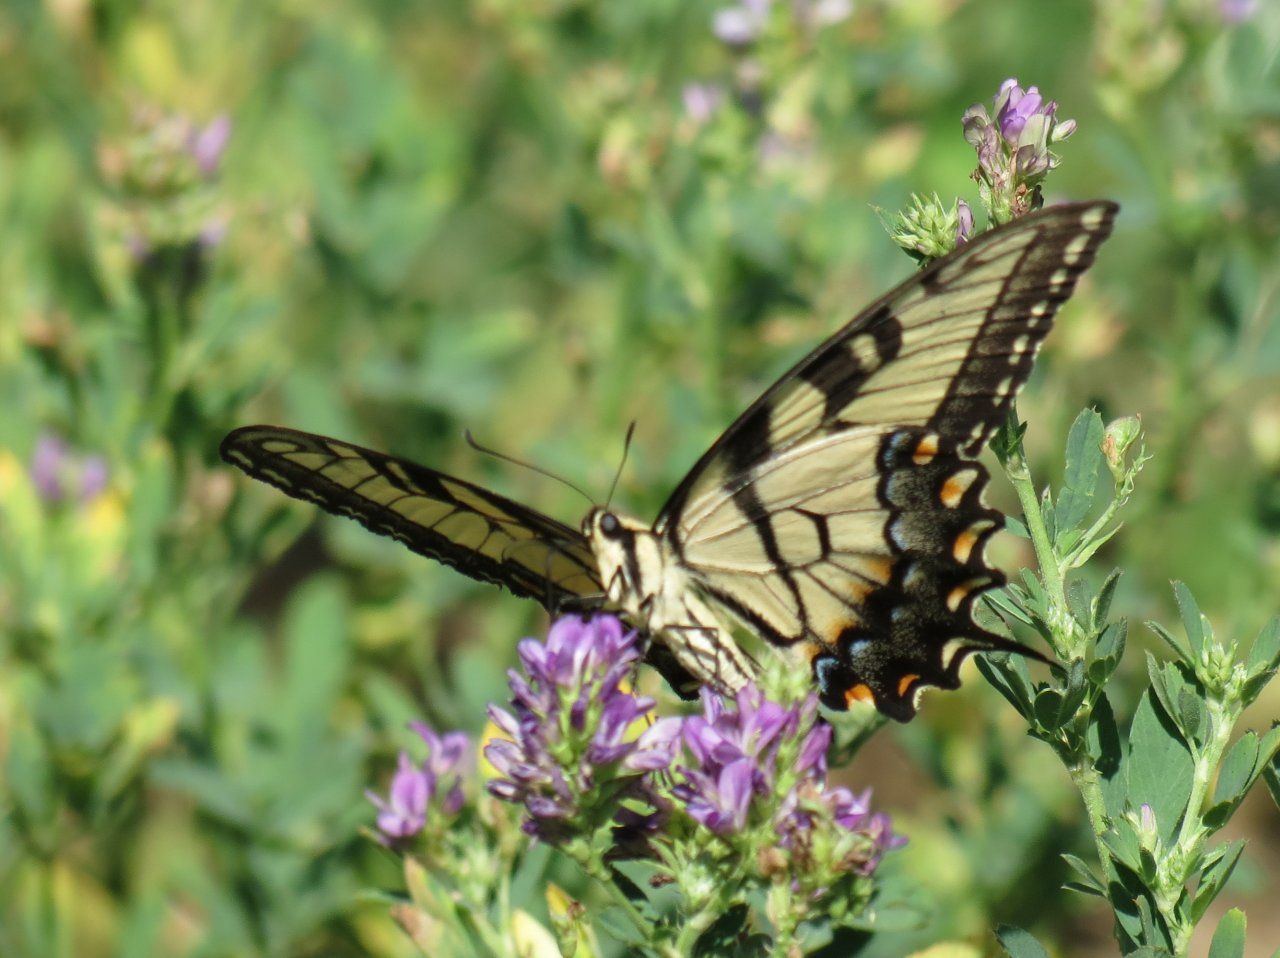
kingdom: Animalia
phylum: Arthropoda
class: Insecta
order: Lepidoptera
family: Papilionidae
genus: Pterourus
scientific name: Pterourus glaucus
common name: Eastern Tiger Swallowtail
